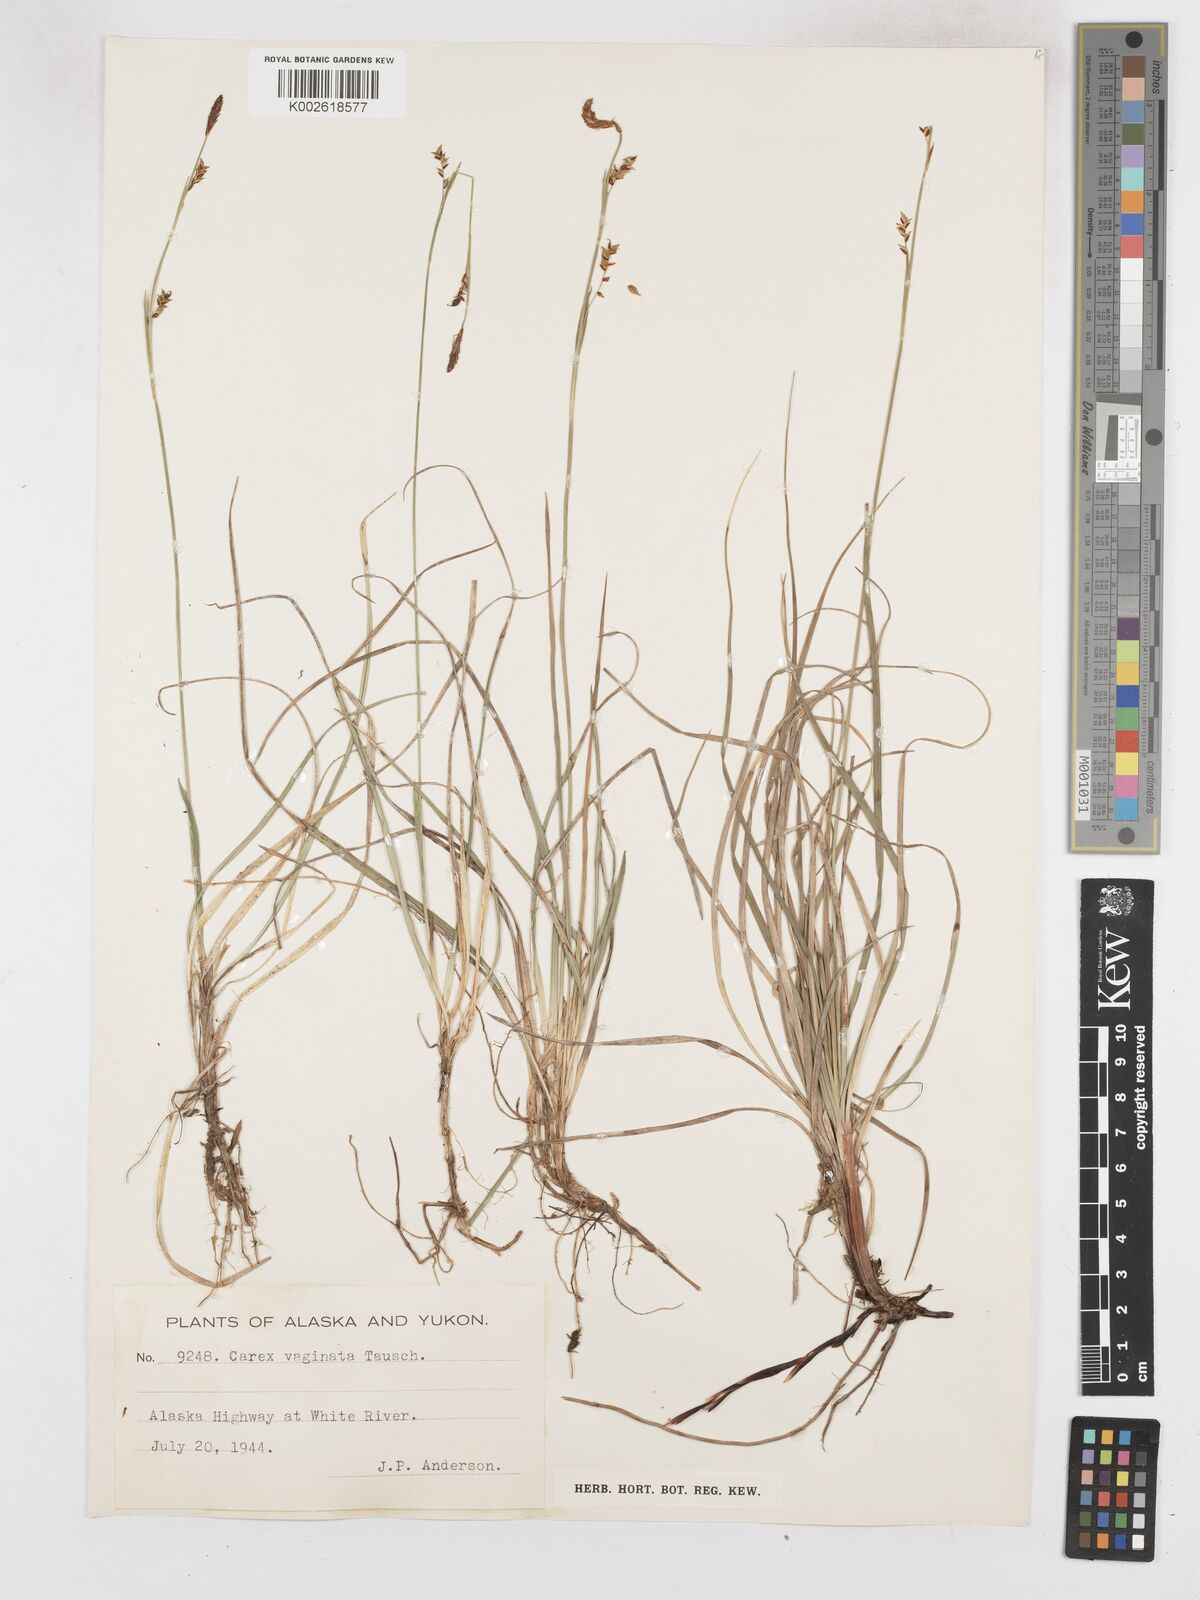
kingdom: Plantae
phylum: Tracheophyta
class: Liliopsida
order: Poales
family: Cyperaceae
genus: Carex
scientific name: Carex vaginata
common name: Sheathed sedge
